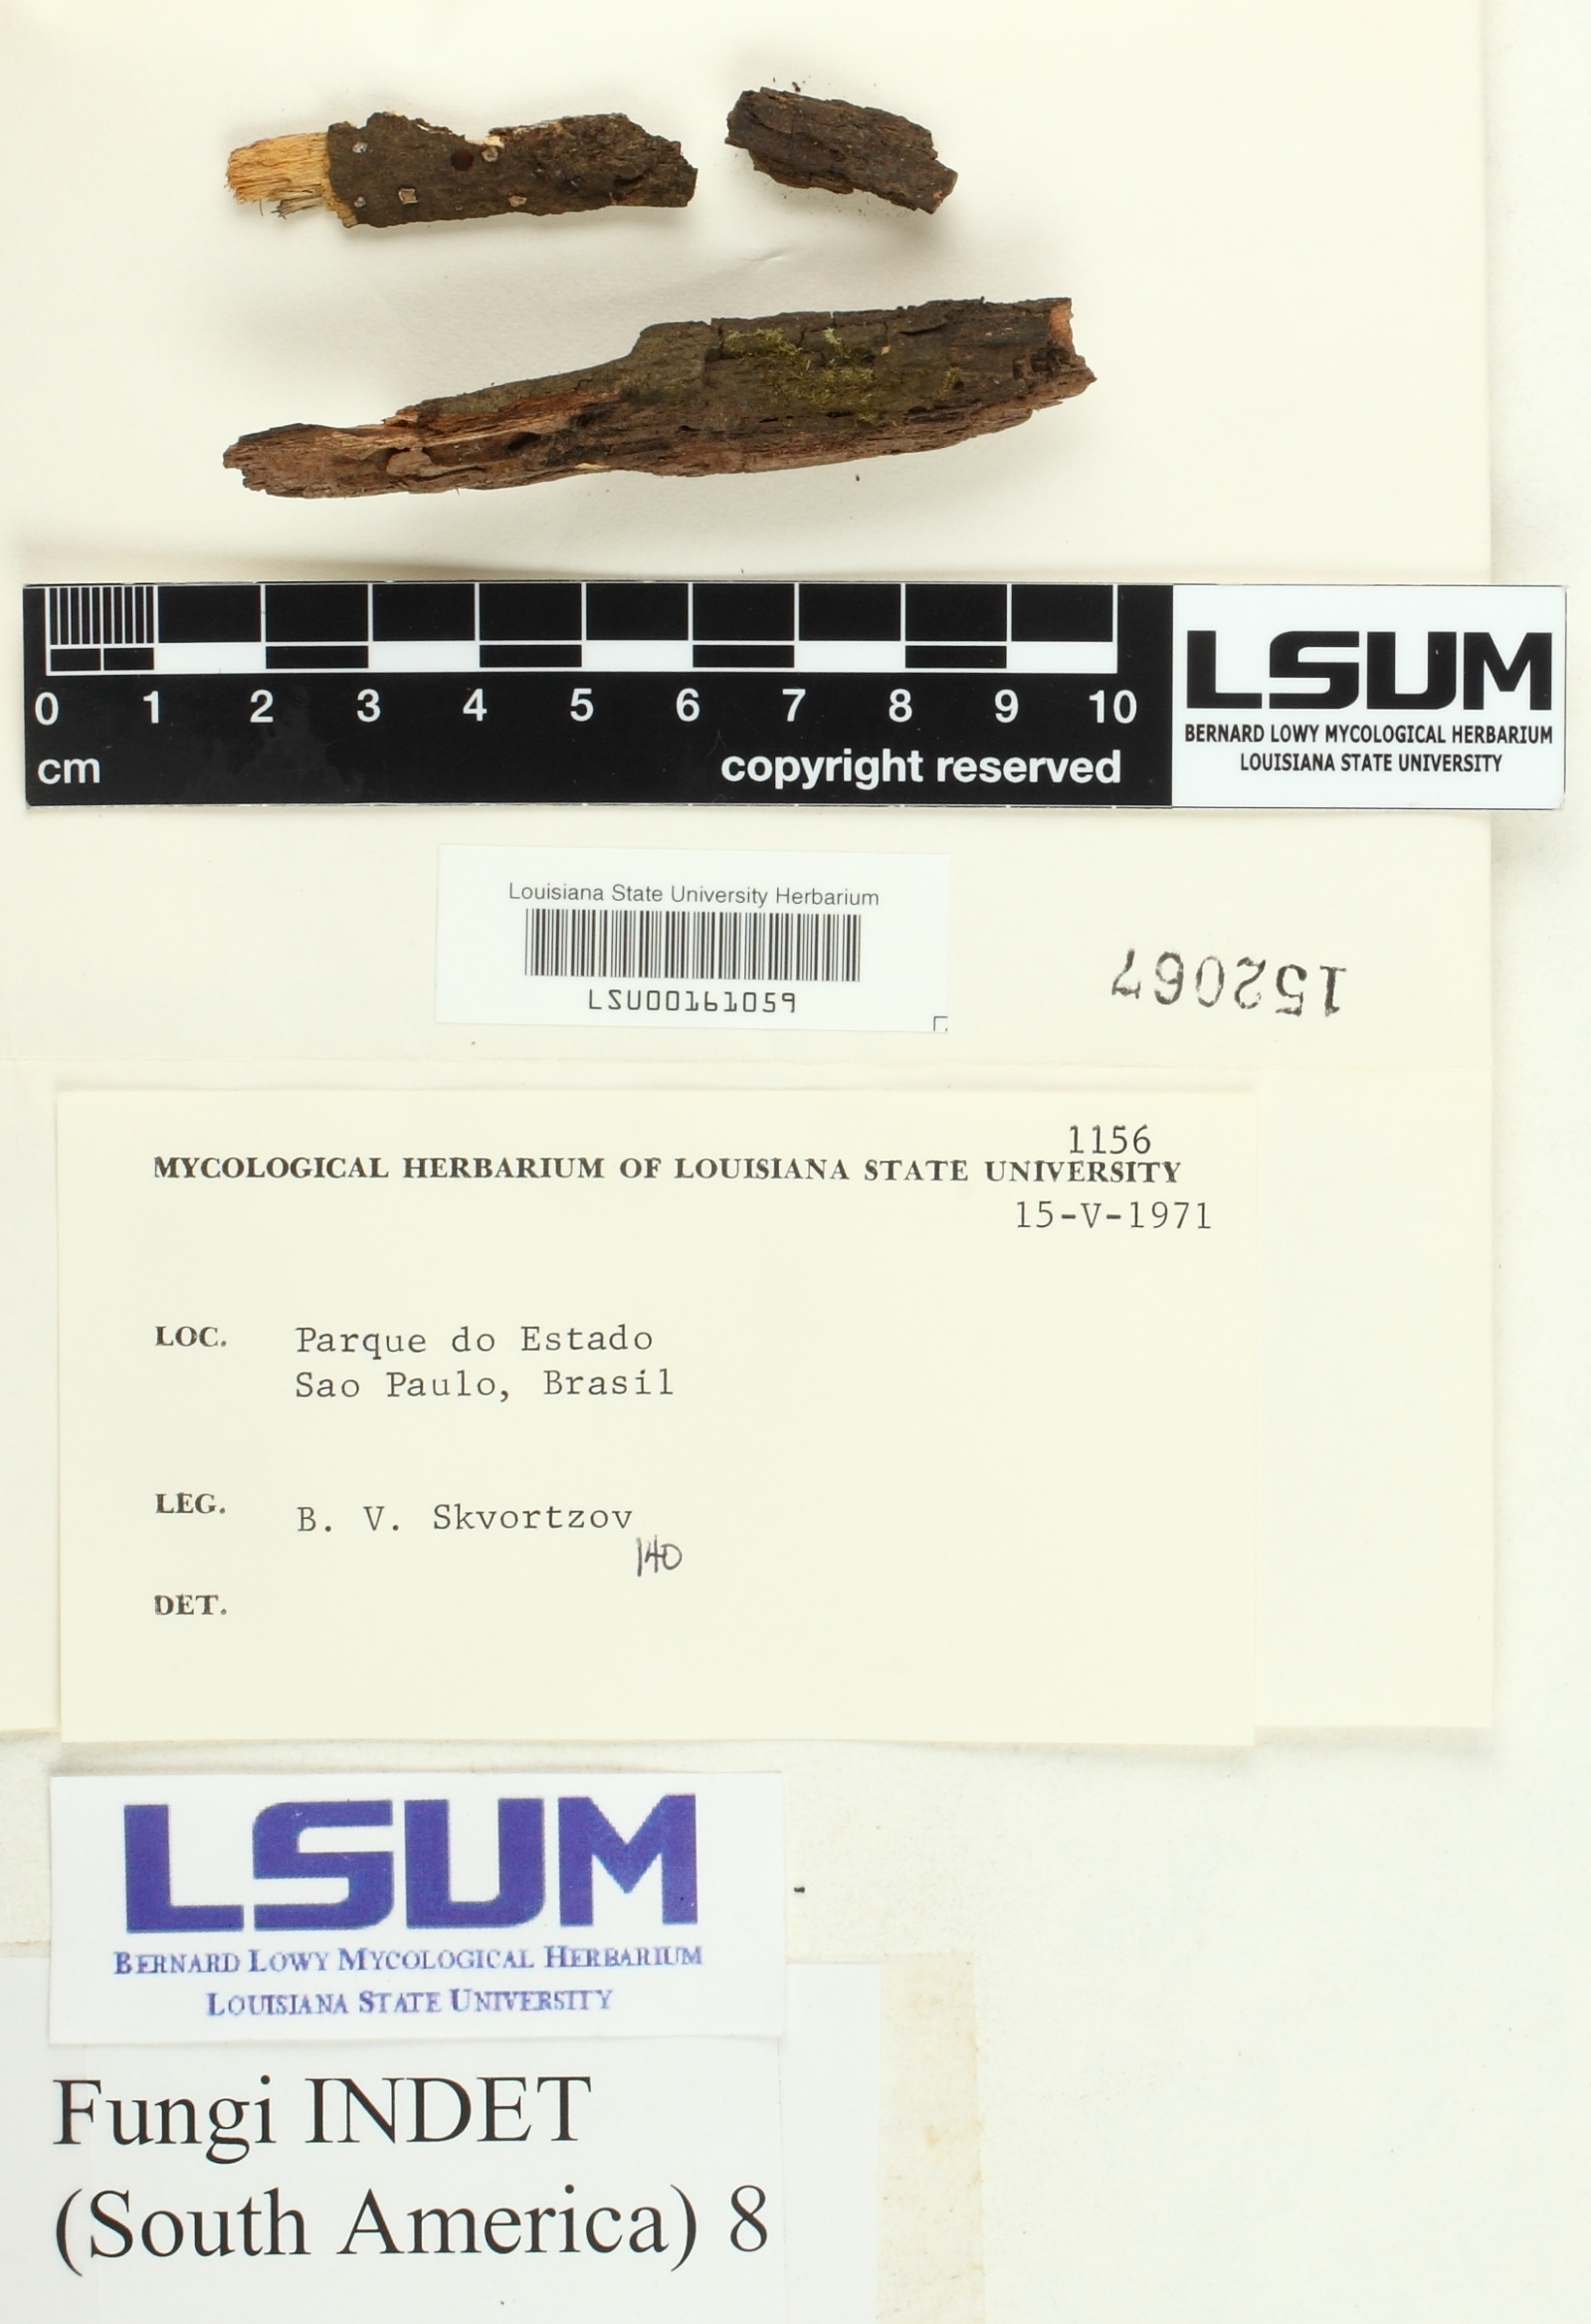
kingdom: Fungi
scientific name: Fungi
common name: Fungi
